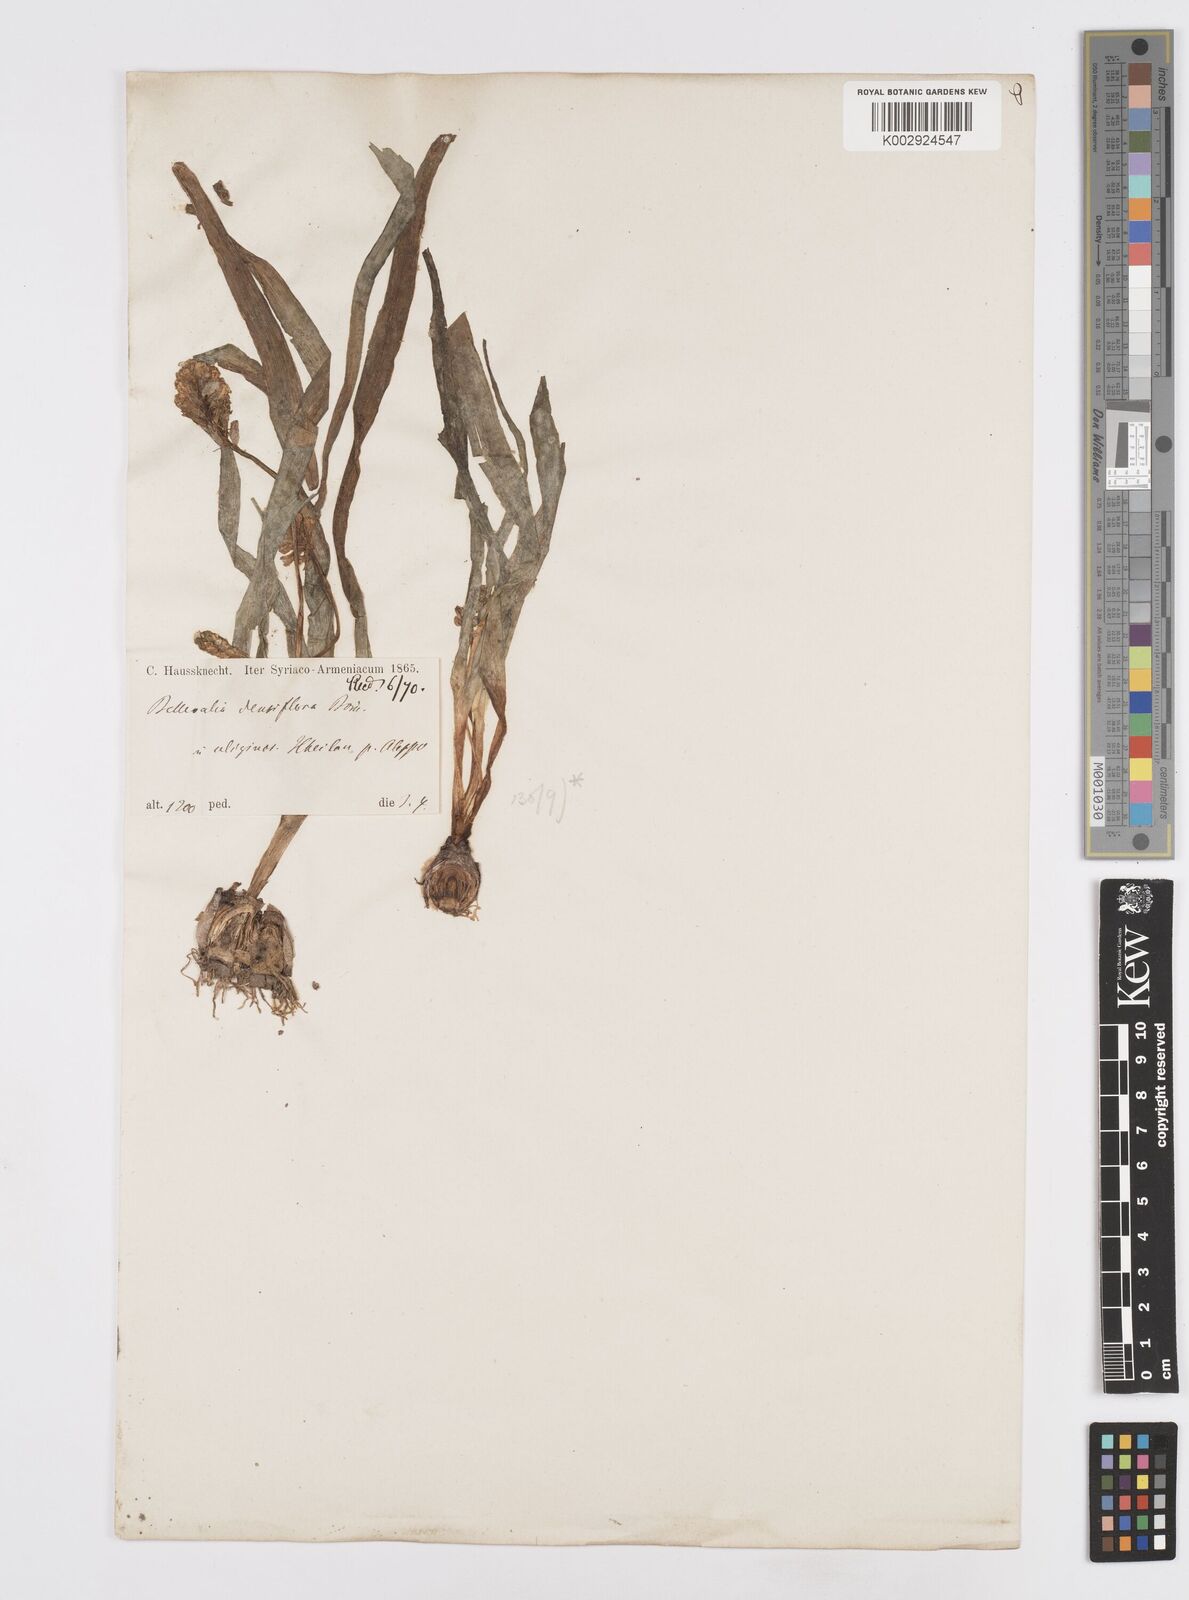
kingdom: Plantae
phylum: Tracheophyta
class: Liliopsida
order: Asparagales
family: Asparagaceae
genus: Bellevalia
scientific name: Bellevalia densiflora
